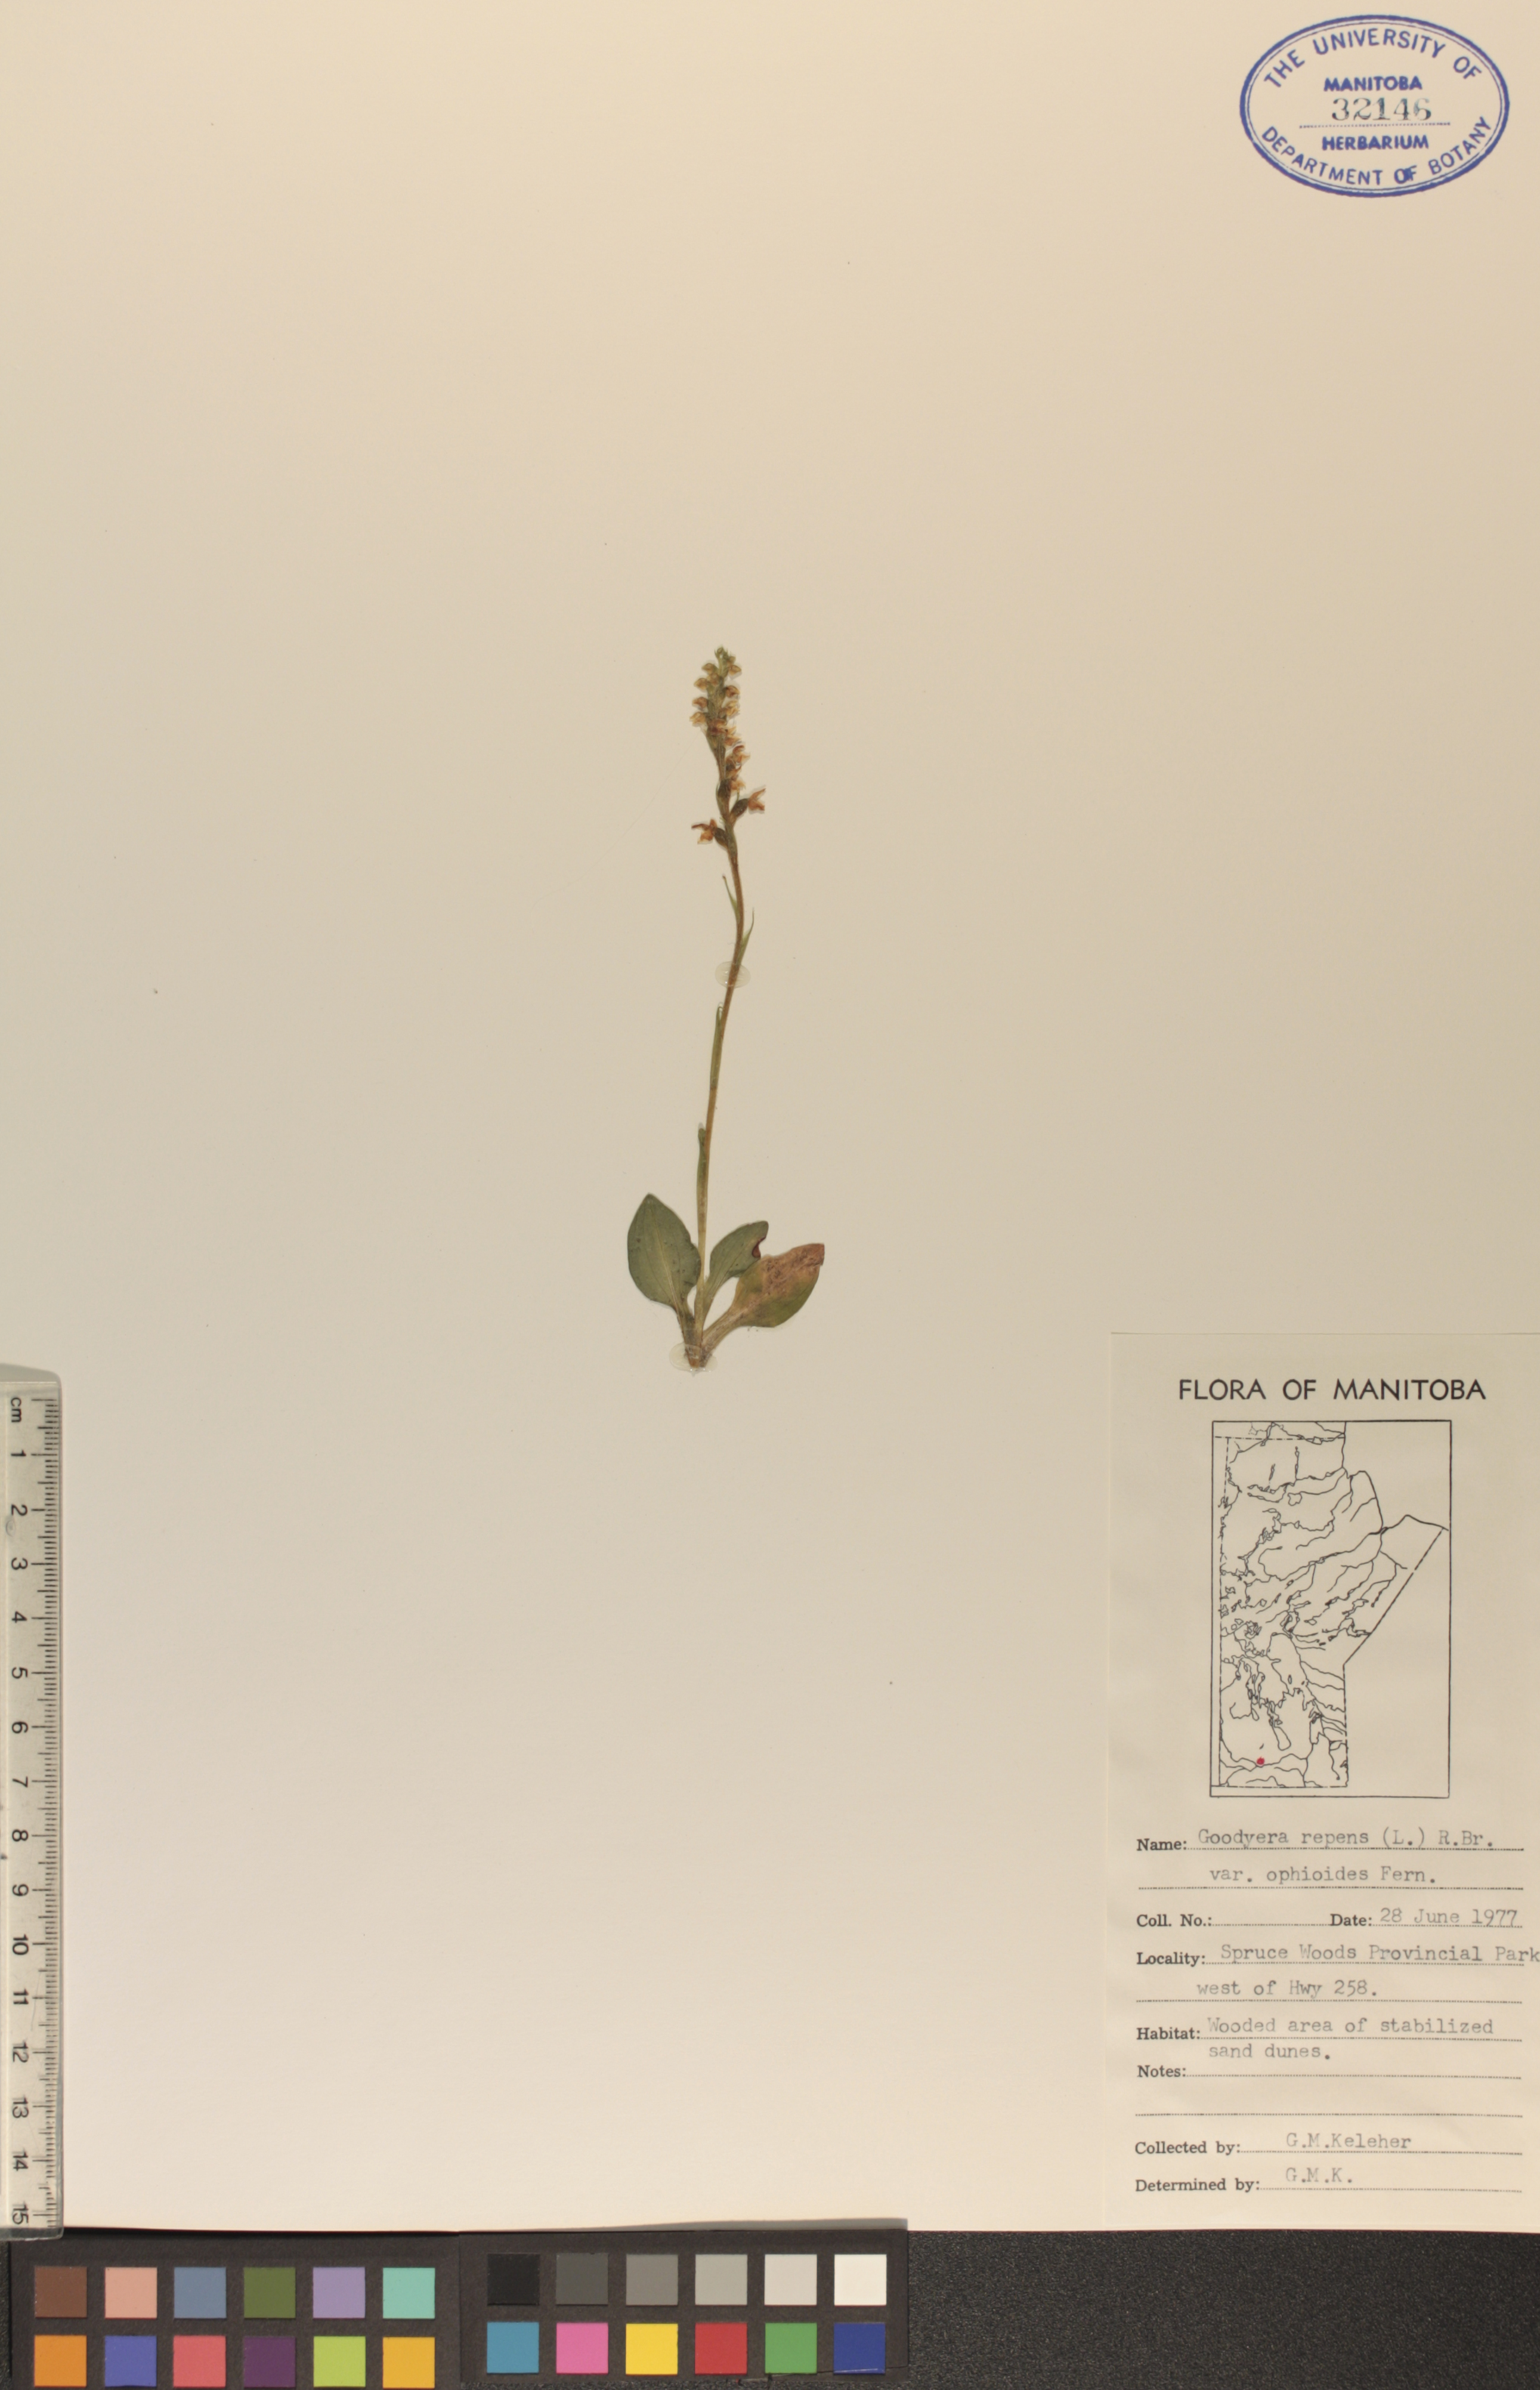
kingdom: Plantae
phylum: Tracheophyta
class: Liliopsida
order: Asparagales
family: Orchidaceae
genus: Goodyera
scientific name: Goodyera repens
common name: Creeping lady's-tresses
